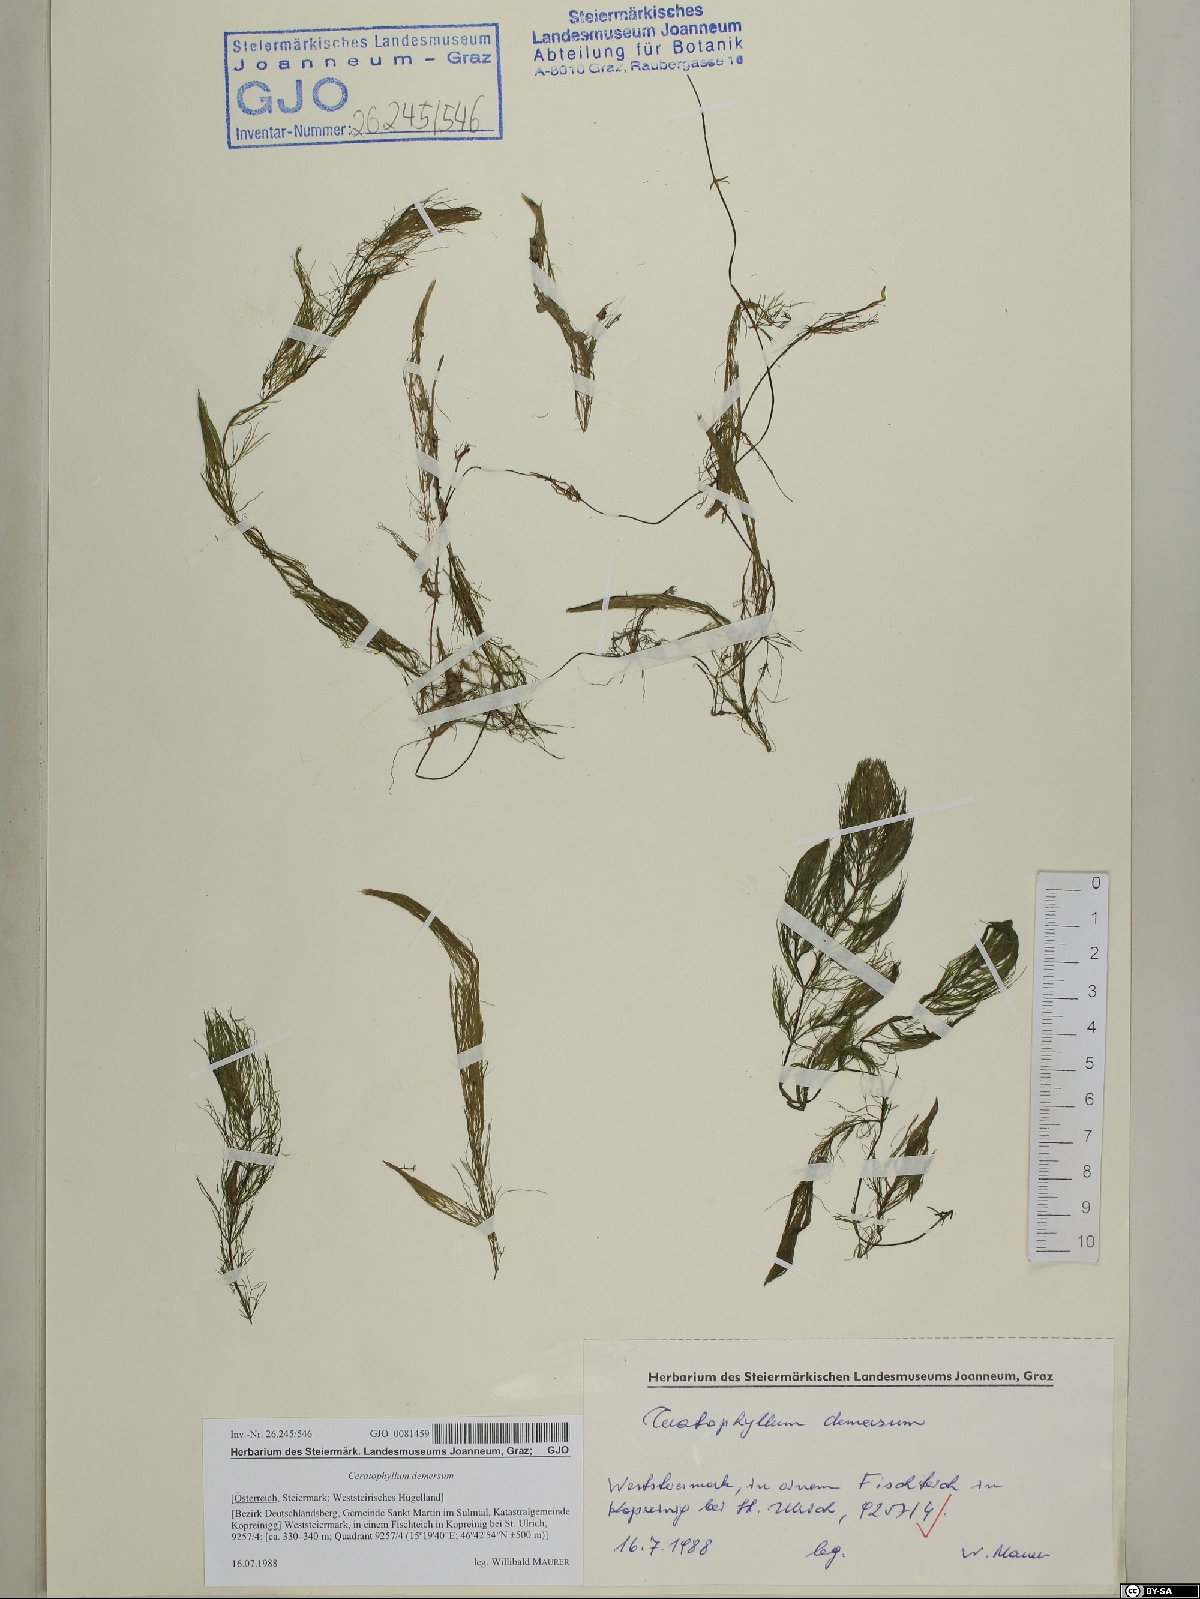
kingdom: Plantae
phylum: Tracheophyta
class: Magnoliopsida
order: Ceratophyllales
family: Ceratophyllaceae
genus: Ceratophyllum
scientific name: Ceratophyllum demersum
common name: Rigid hornwort
